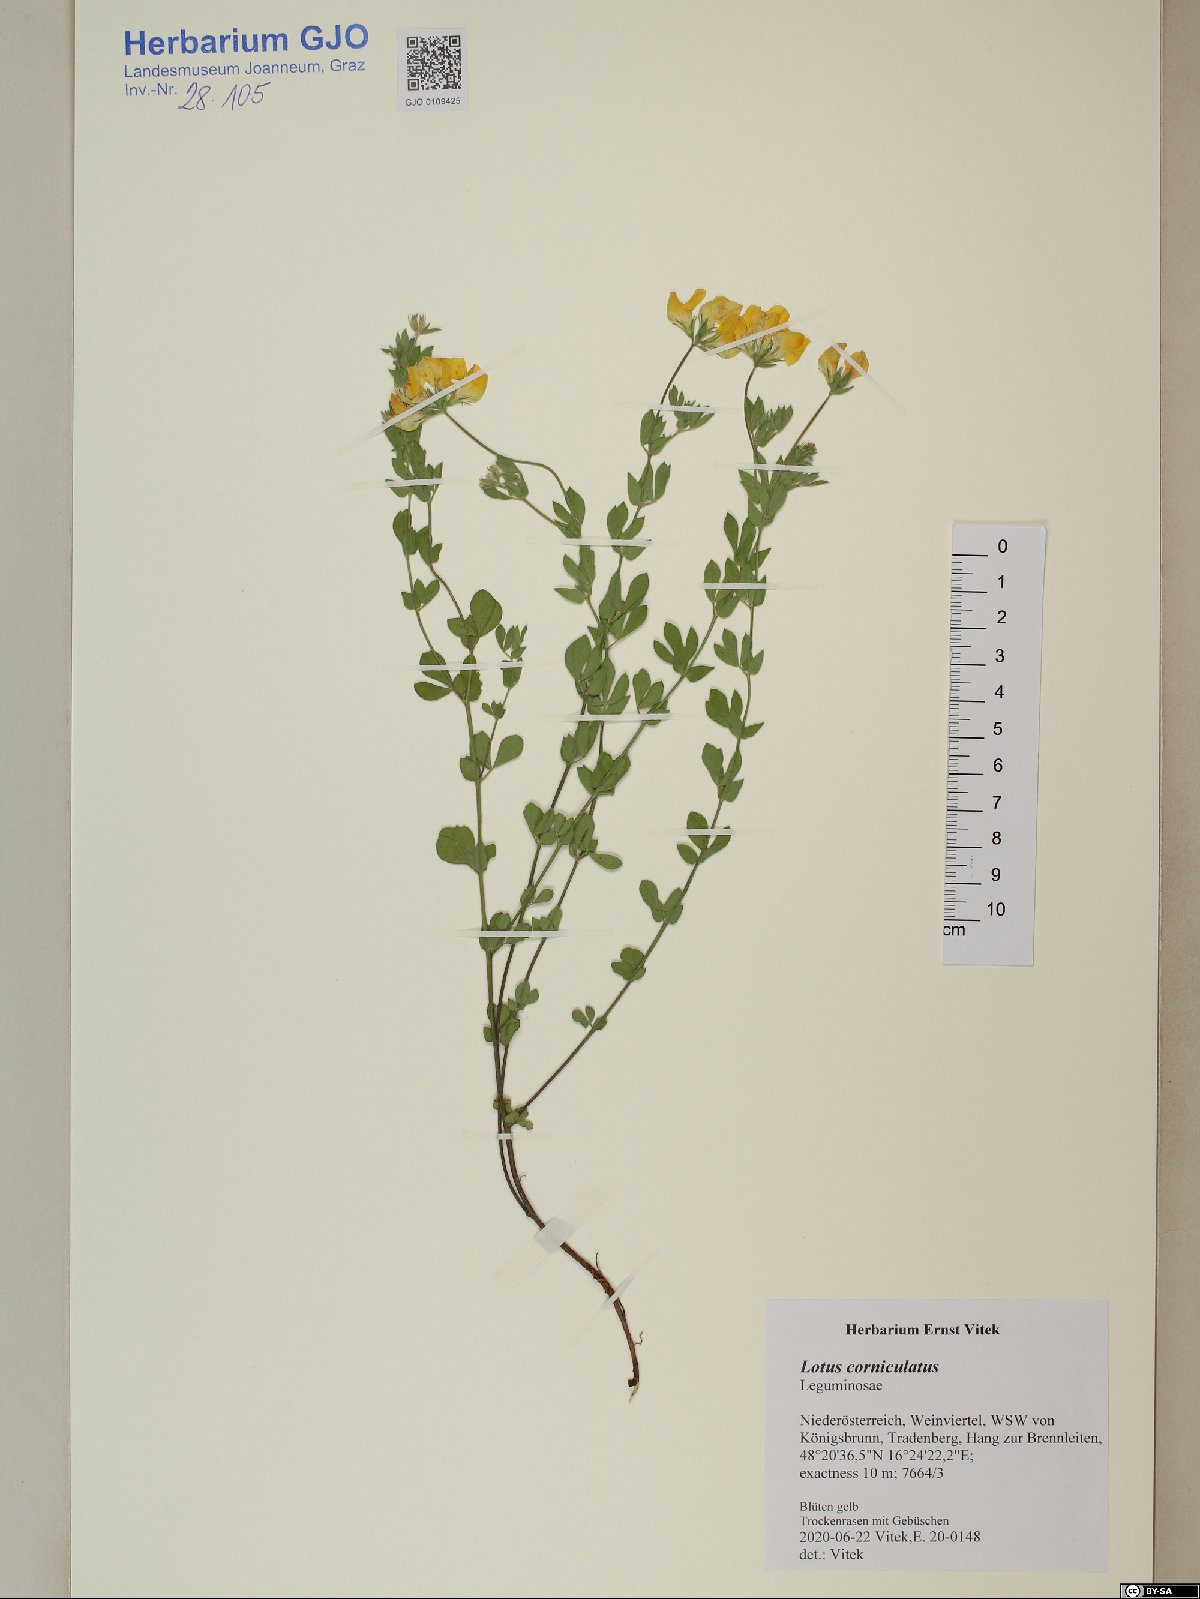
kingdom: Plantae
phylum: Tracheophyta
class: Magnoliopsida
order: Fabales
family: Fabaceae
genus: Lotus
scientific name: Lotus corniculatus
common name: Common bird's-foot-trefoil
